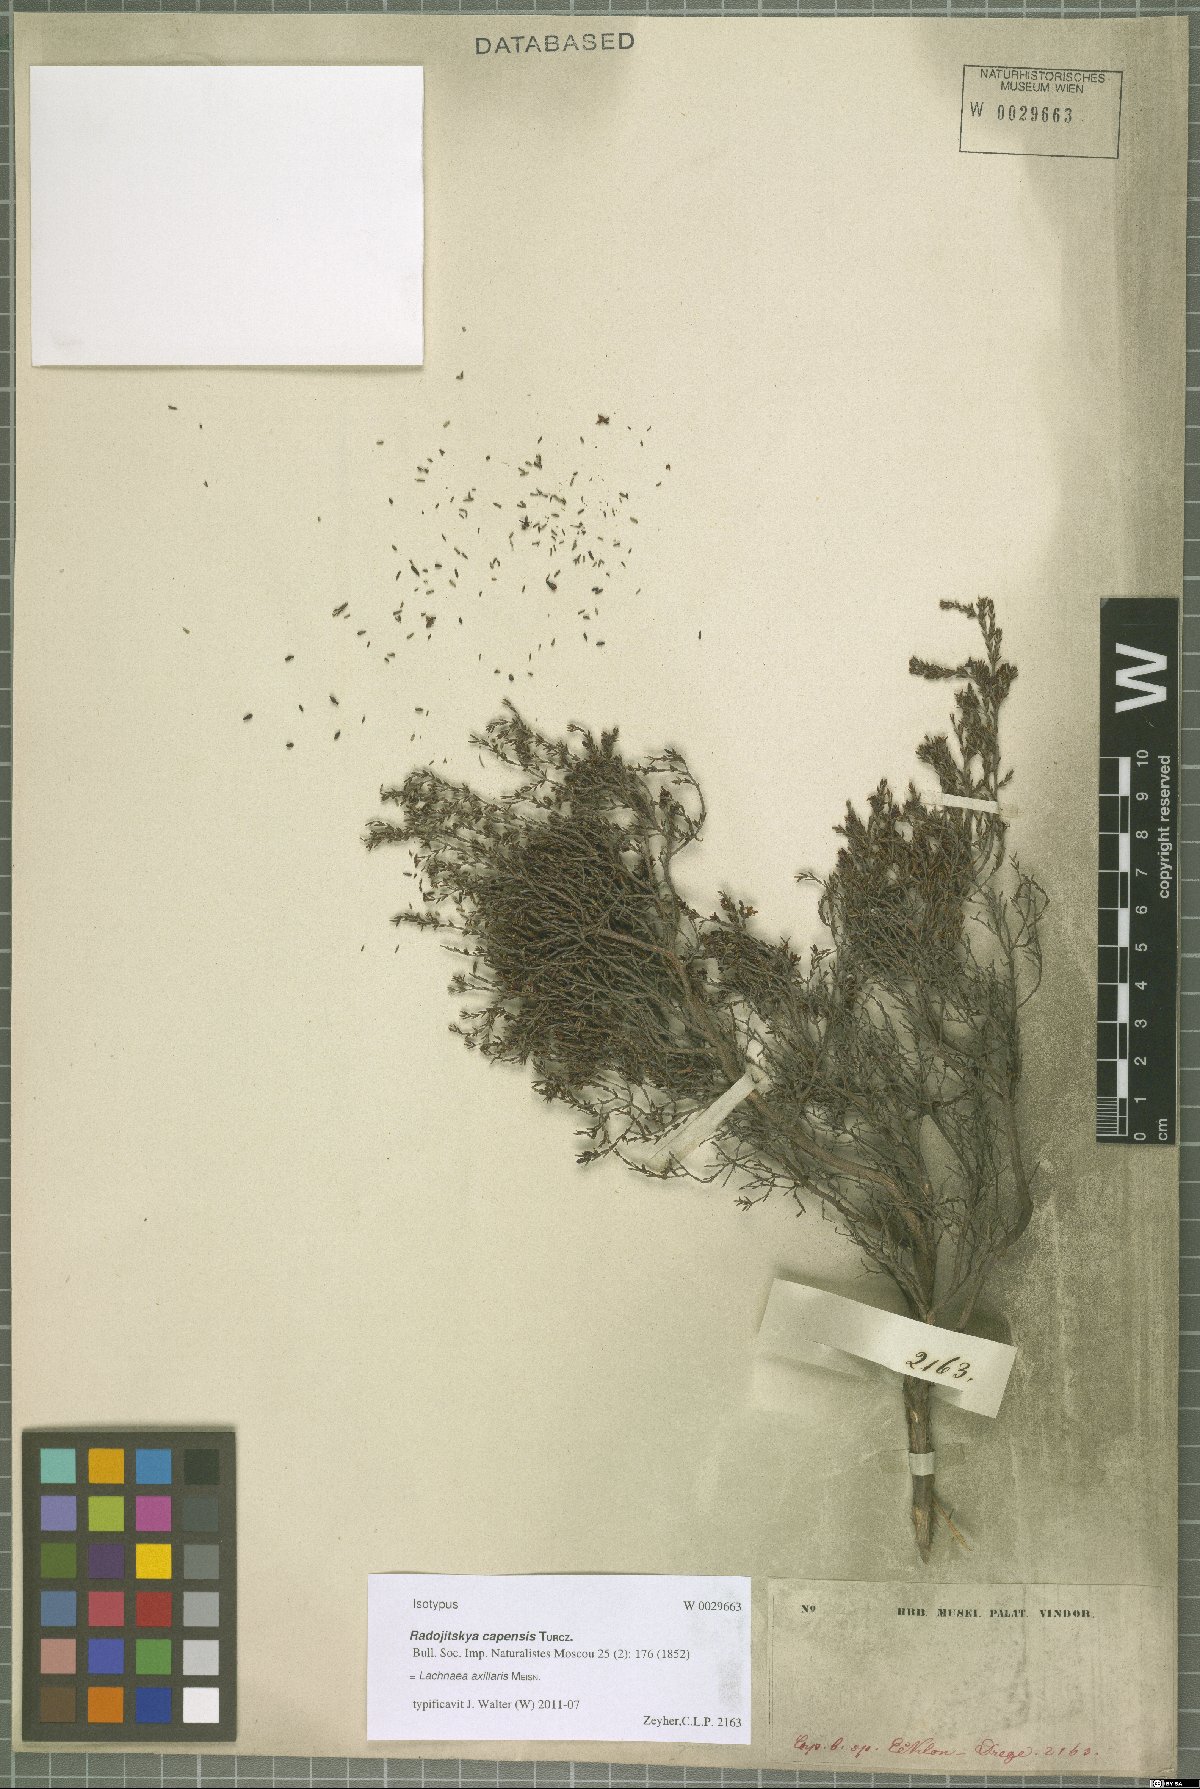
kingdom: Plantae
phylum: Tracheophyta
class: Magnoliopsida
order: Malvales
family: Thymelaeaceae
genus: Lachnaea
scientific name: Lachnaea axillaris
